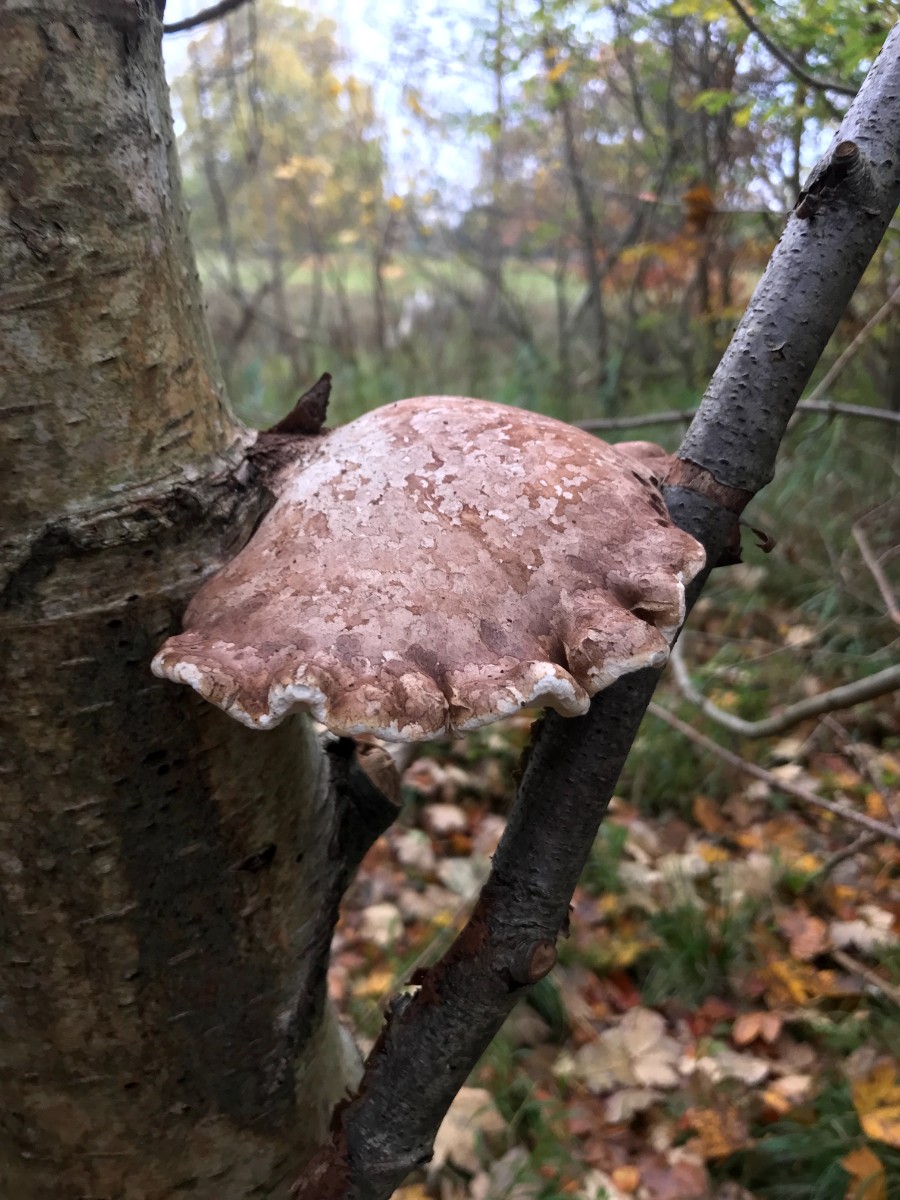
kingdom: Fungi
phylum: Basidiomycota
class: Agaricomycetes
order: Polyporales
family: Fomitopsidaceae
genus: Fomitopsis
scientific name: Fomitopsis betulina
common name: birkeporesvamp
